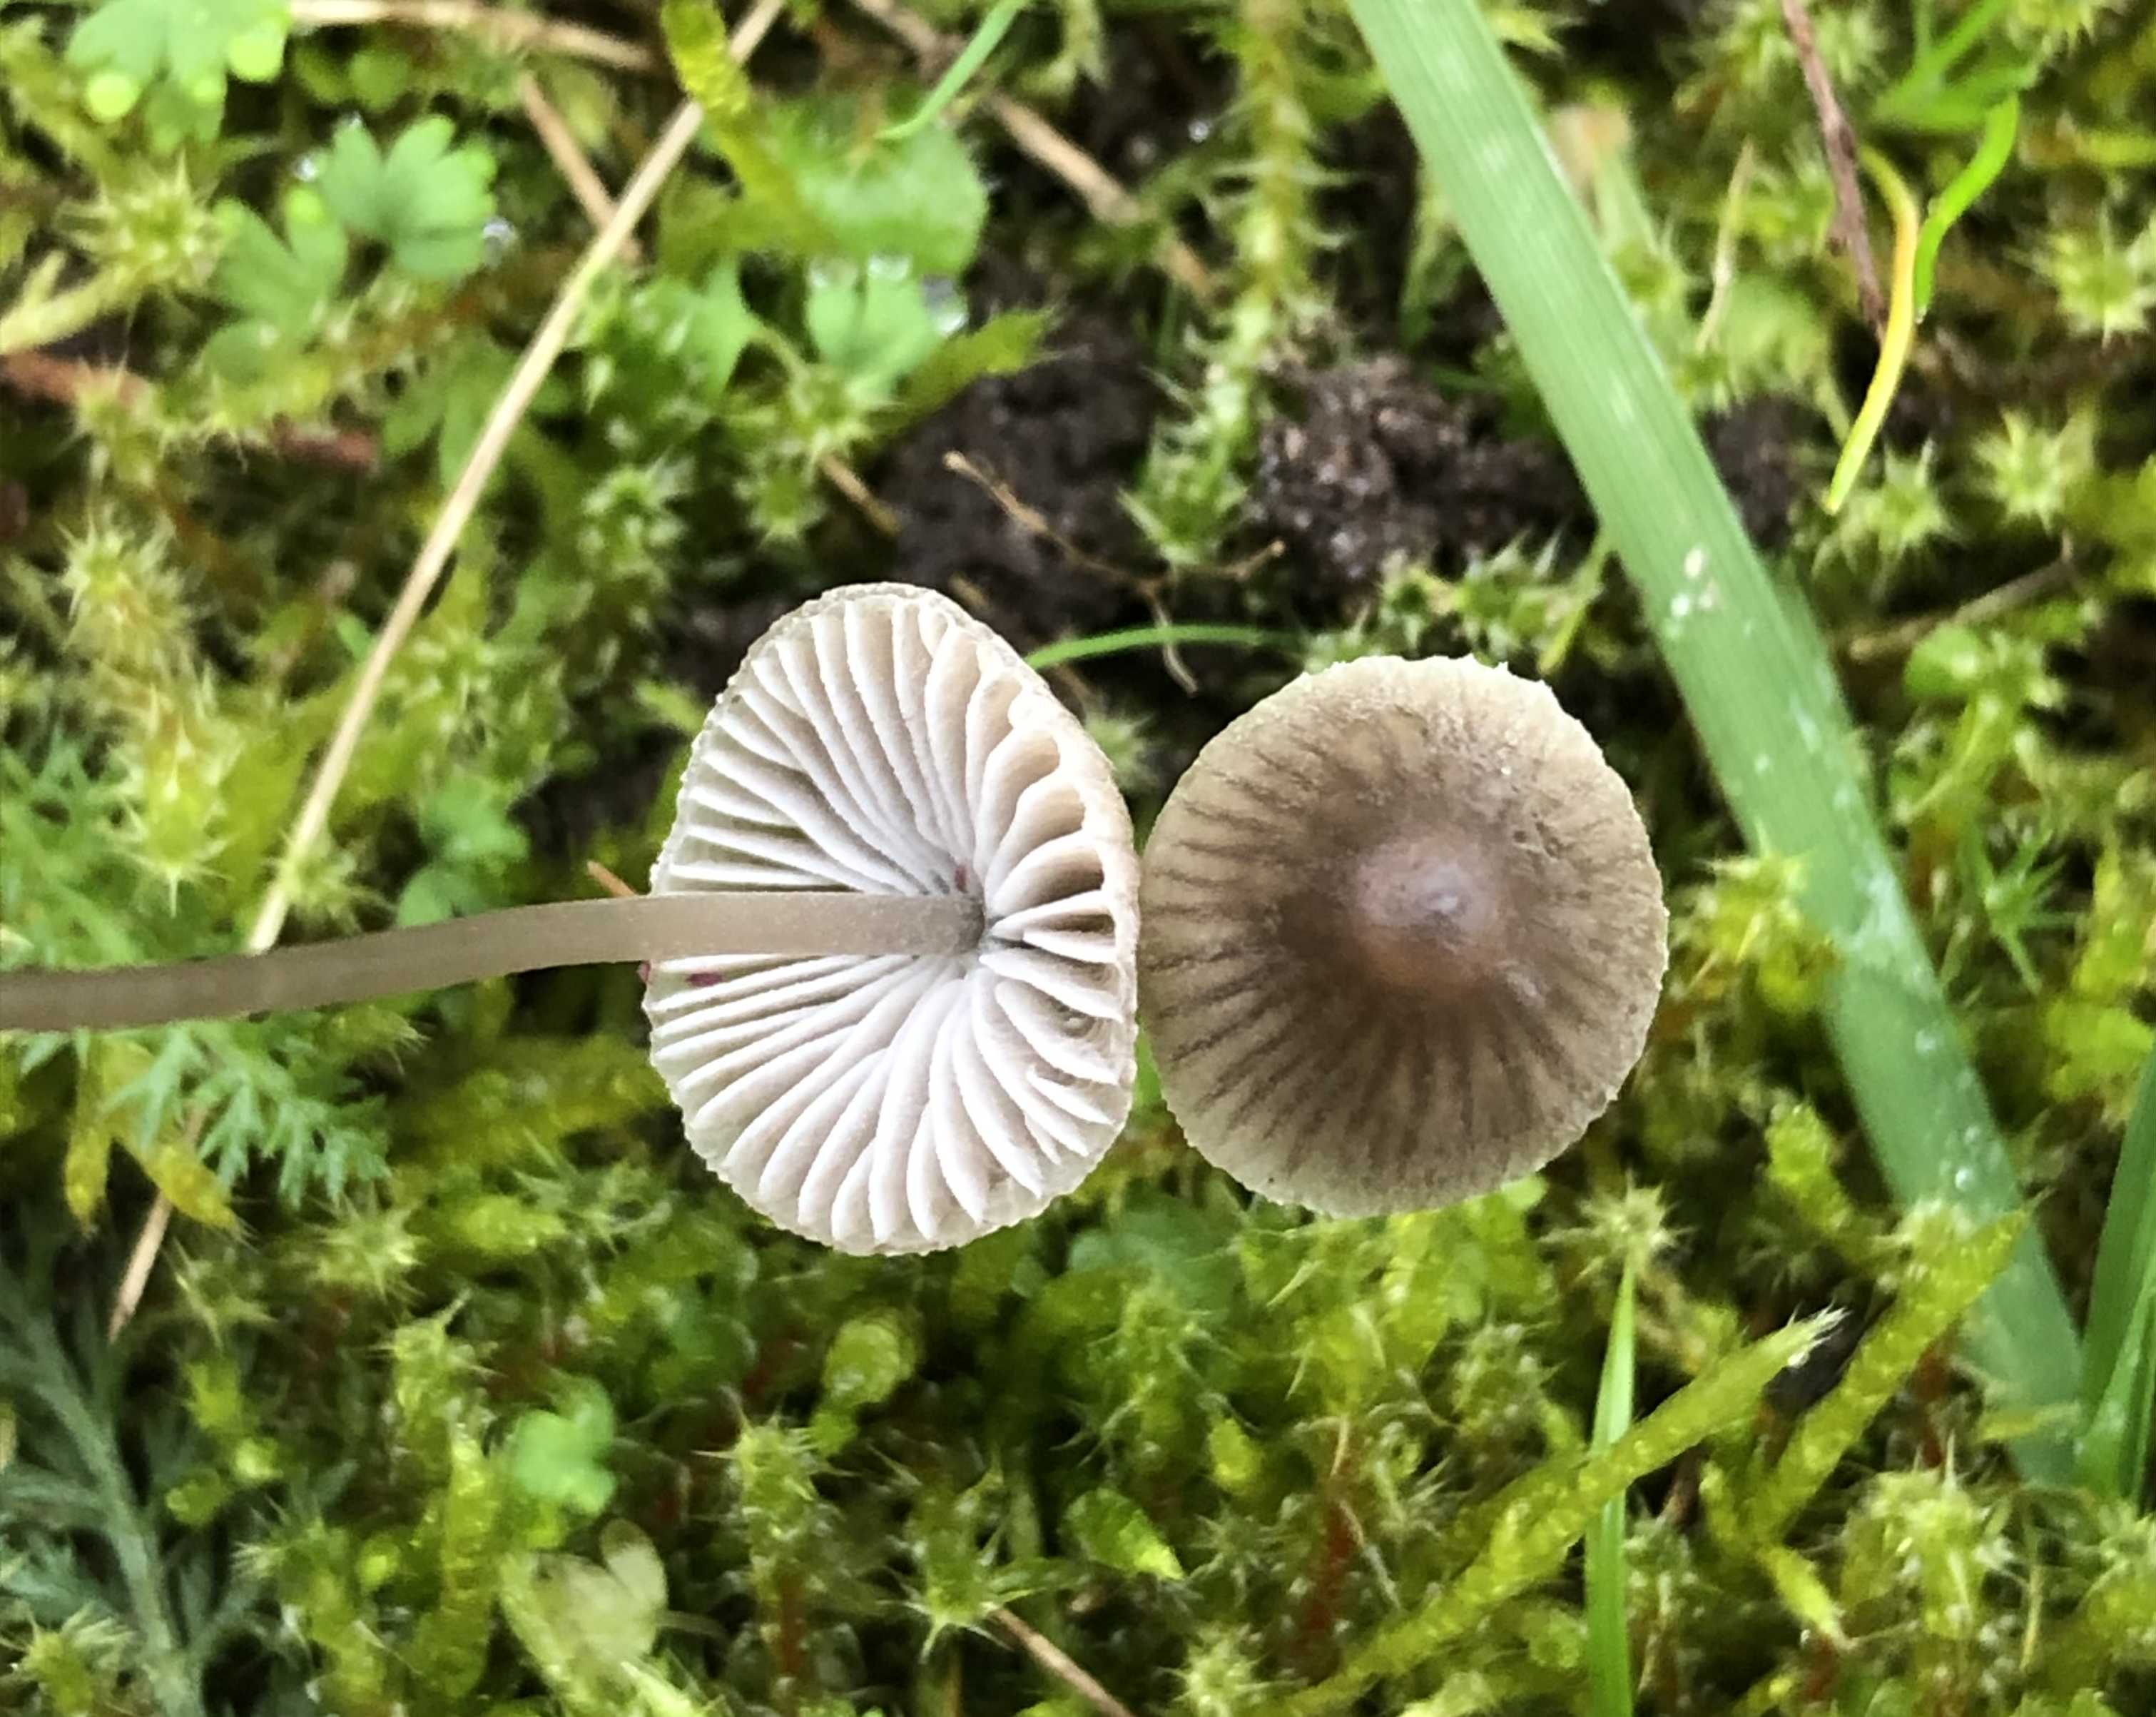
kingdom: Fungi
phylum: Basidiomycota
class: Agaricomycetes
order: Agaricales
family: Mycenaceae
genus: Mycena
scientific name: Mycena leptocephala
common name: klor-huesvamp
